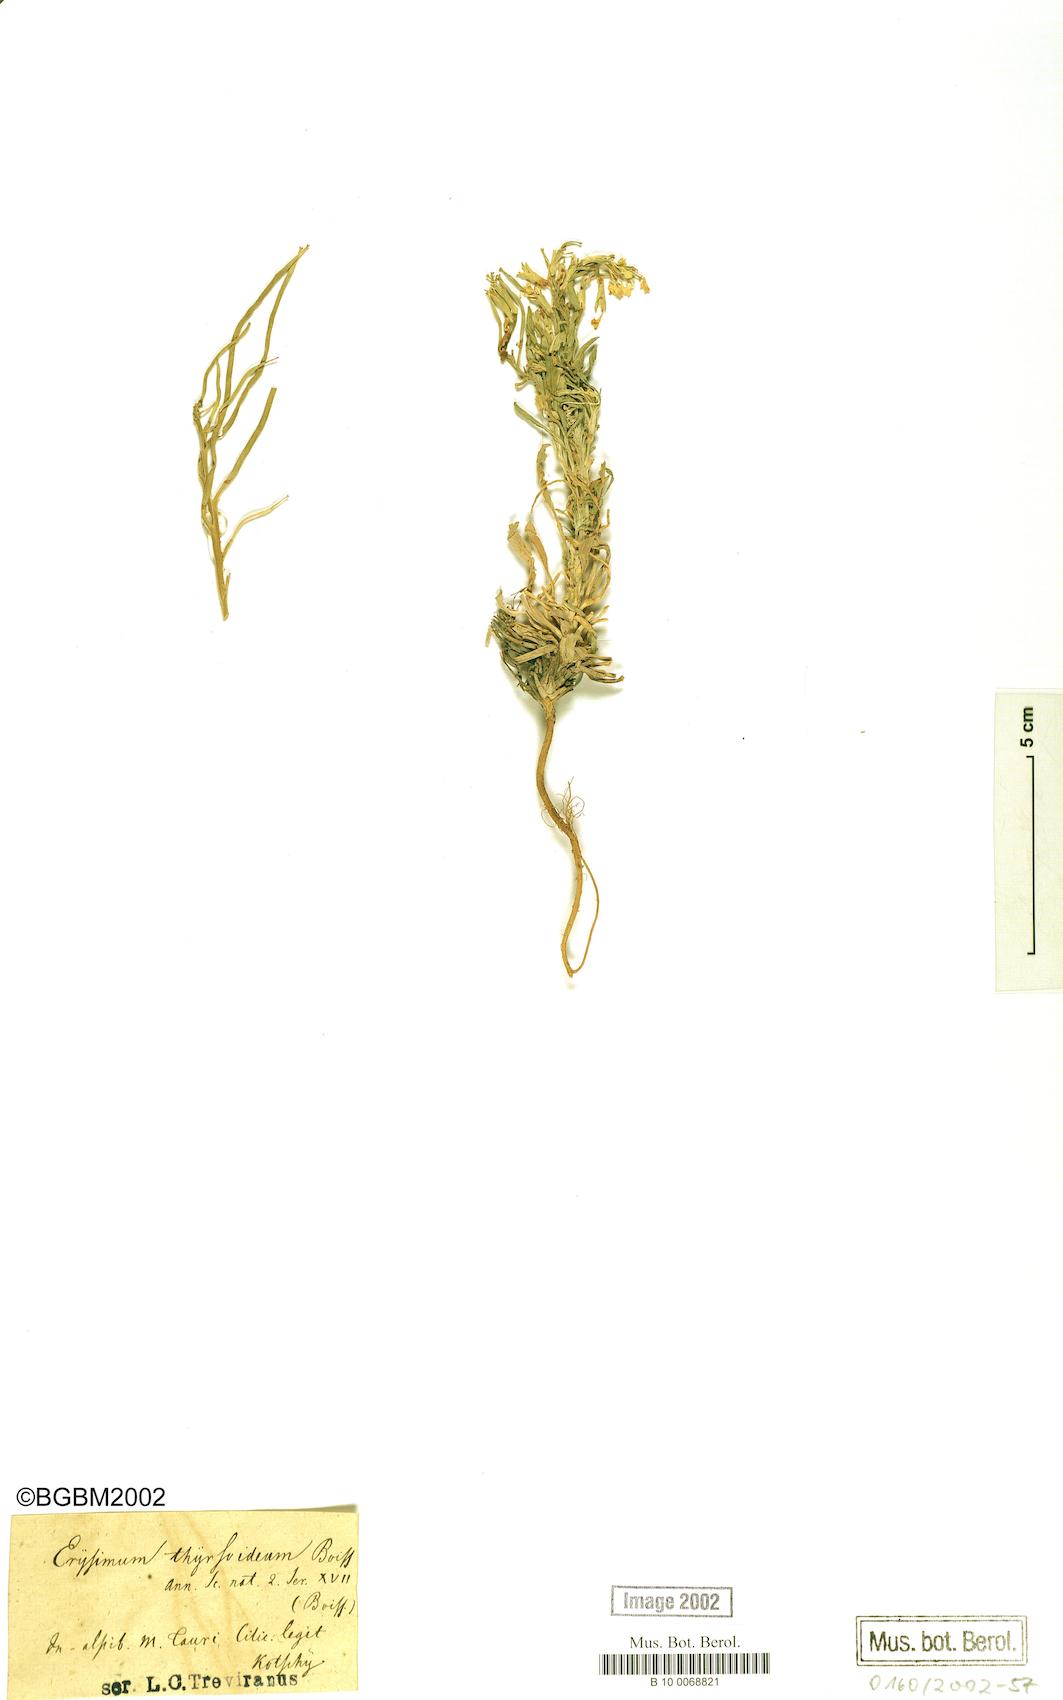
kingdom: Plantae
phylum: Tracheophyta
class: Magnoliopsida
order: Brassicales
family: Brassicaceae
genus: Erysimum
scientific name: Erysimum pycnophyllum
